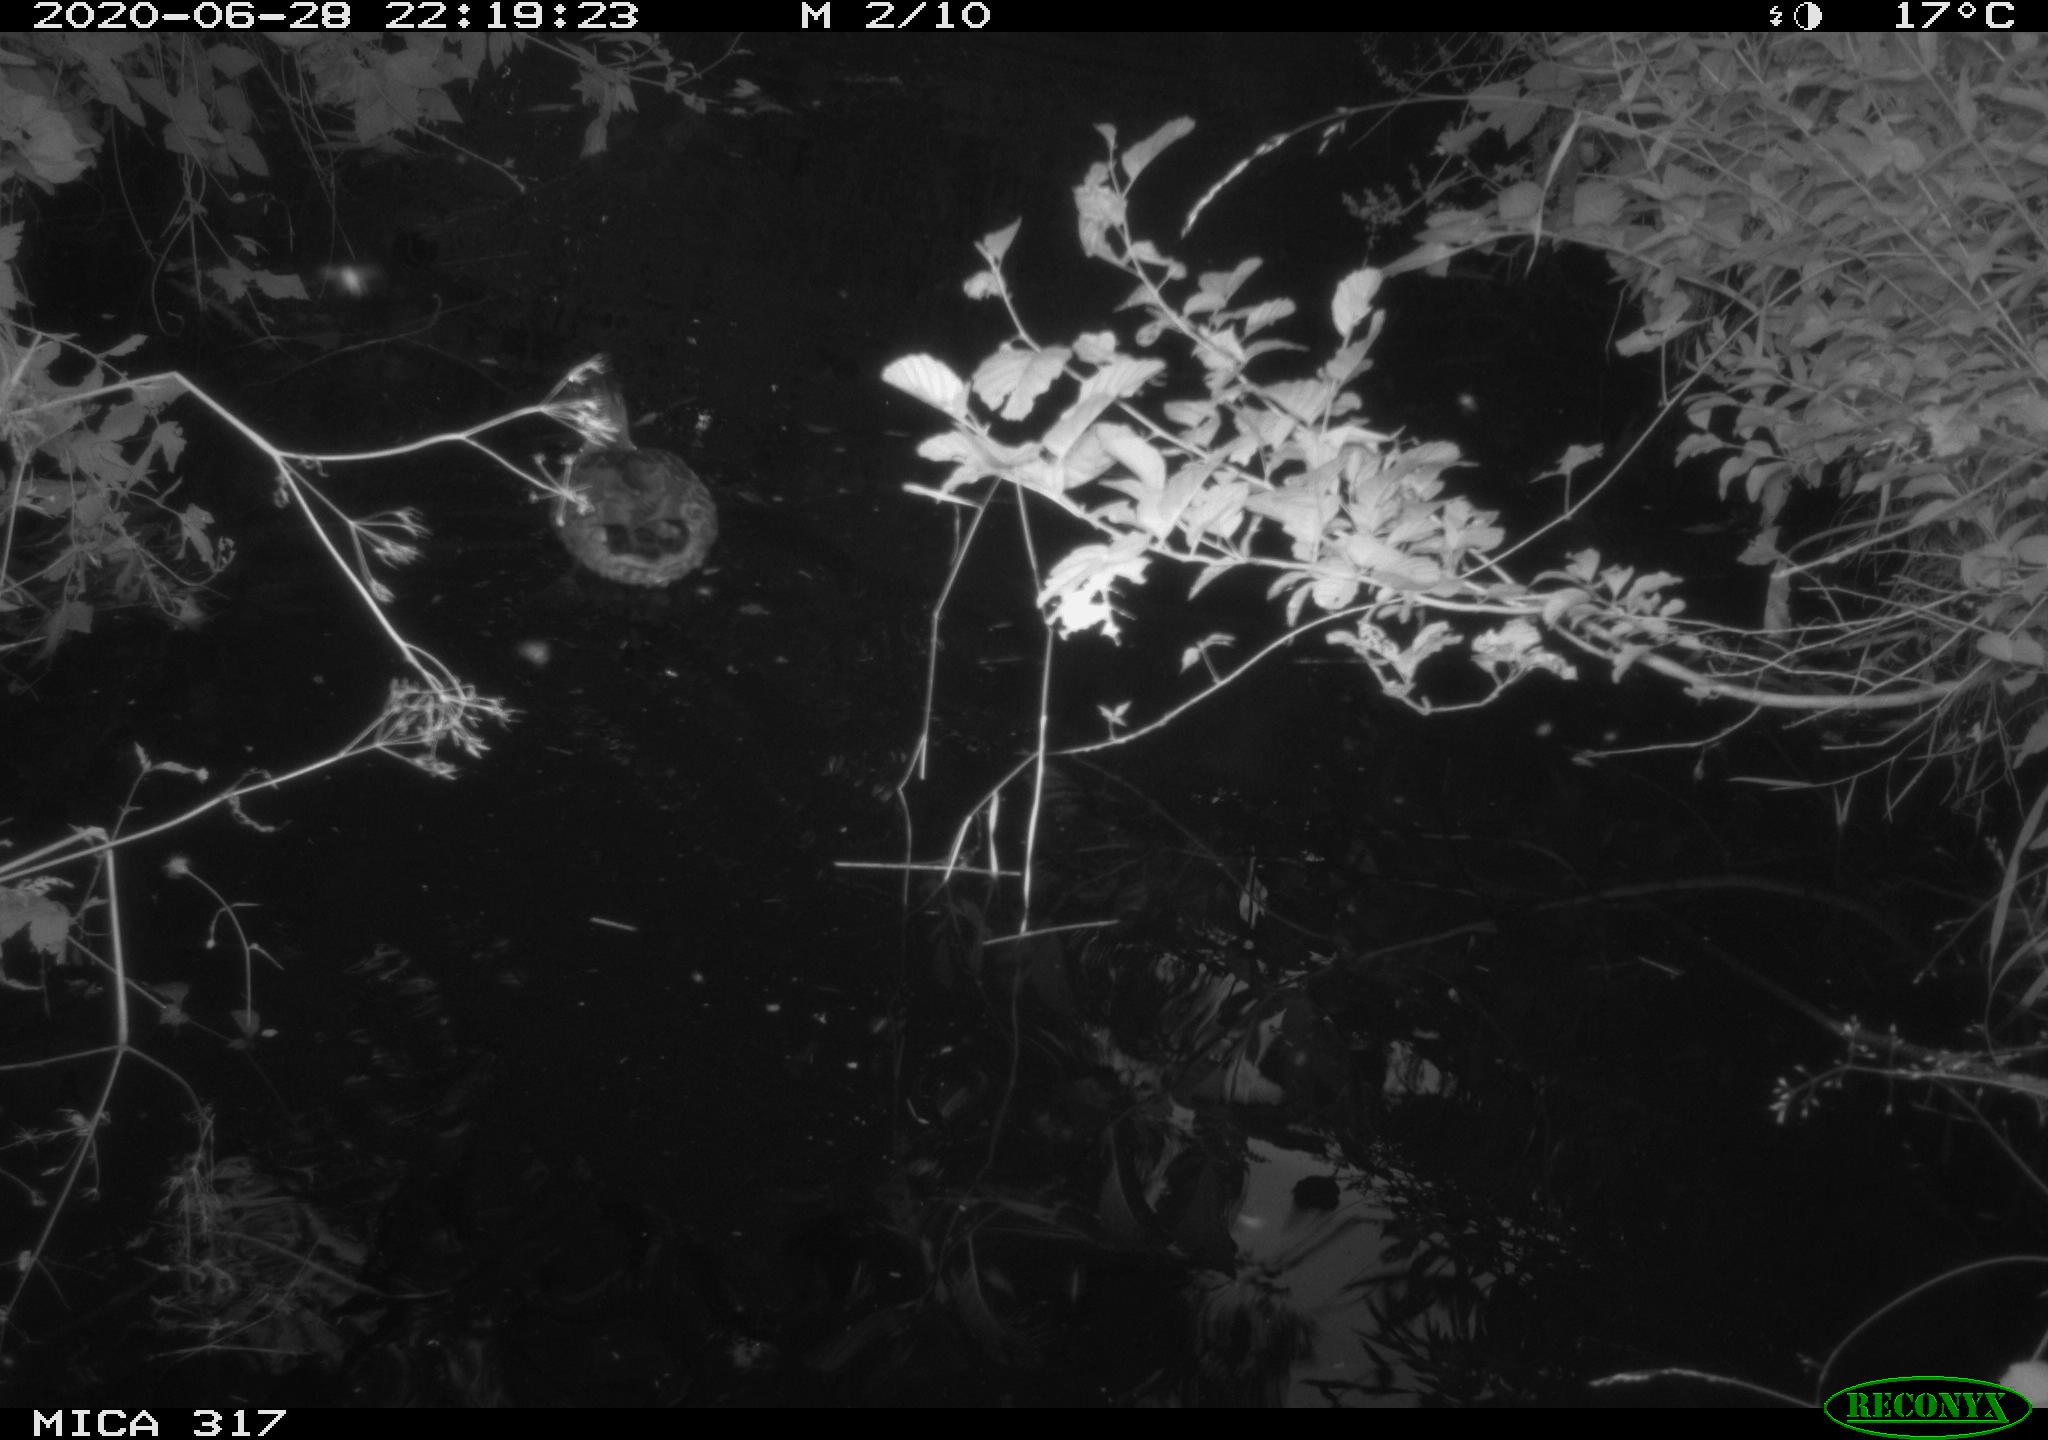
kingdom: Animalia
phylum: Chordata
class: Aves
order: Anseriformes
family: Anatidae
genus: Anas
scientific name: Anas platyrhynchos
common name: Mallard
